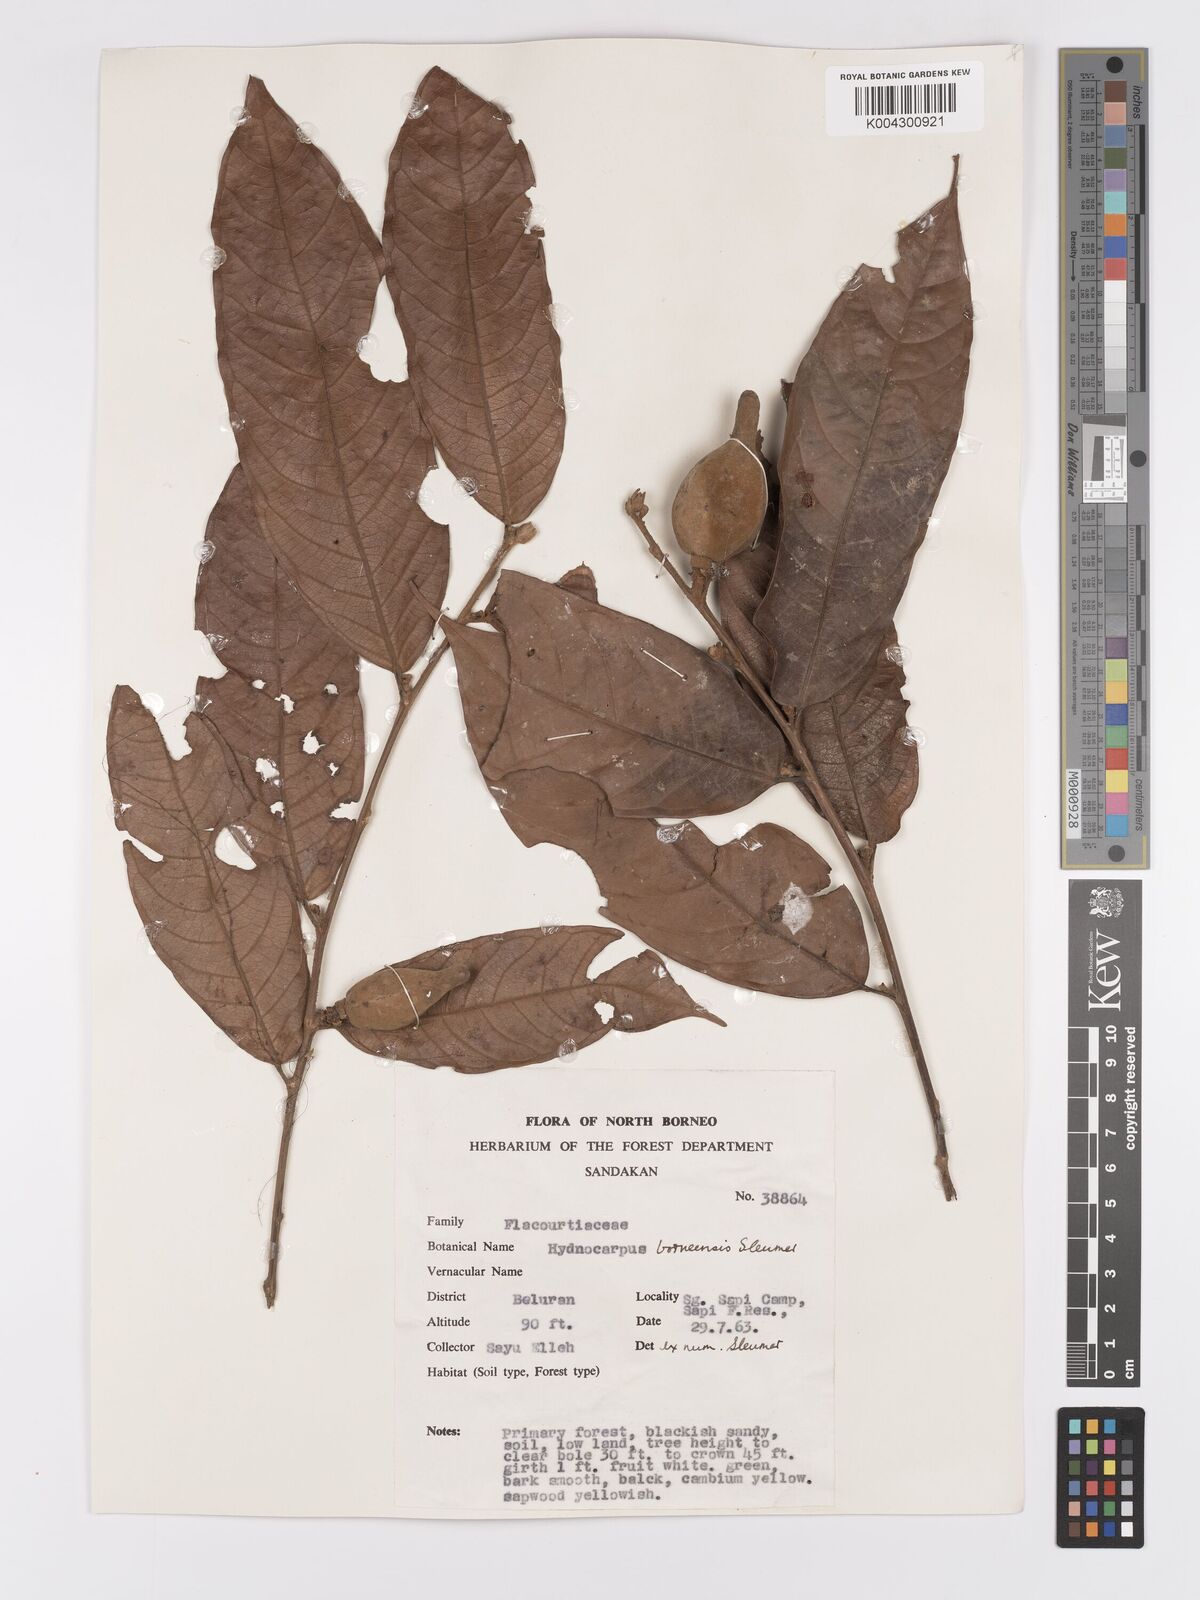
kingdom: Plantae
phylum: Tracheophyta
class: Magnoliopsida
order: Malpighiales
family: Achariaceae
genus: Hydnocarpus
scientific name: Hydnocarpus borneensis
